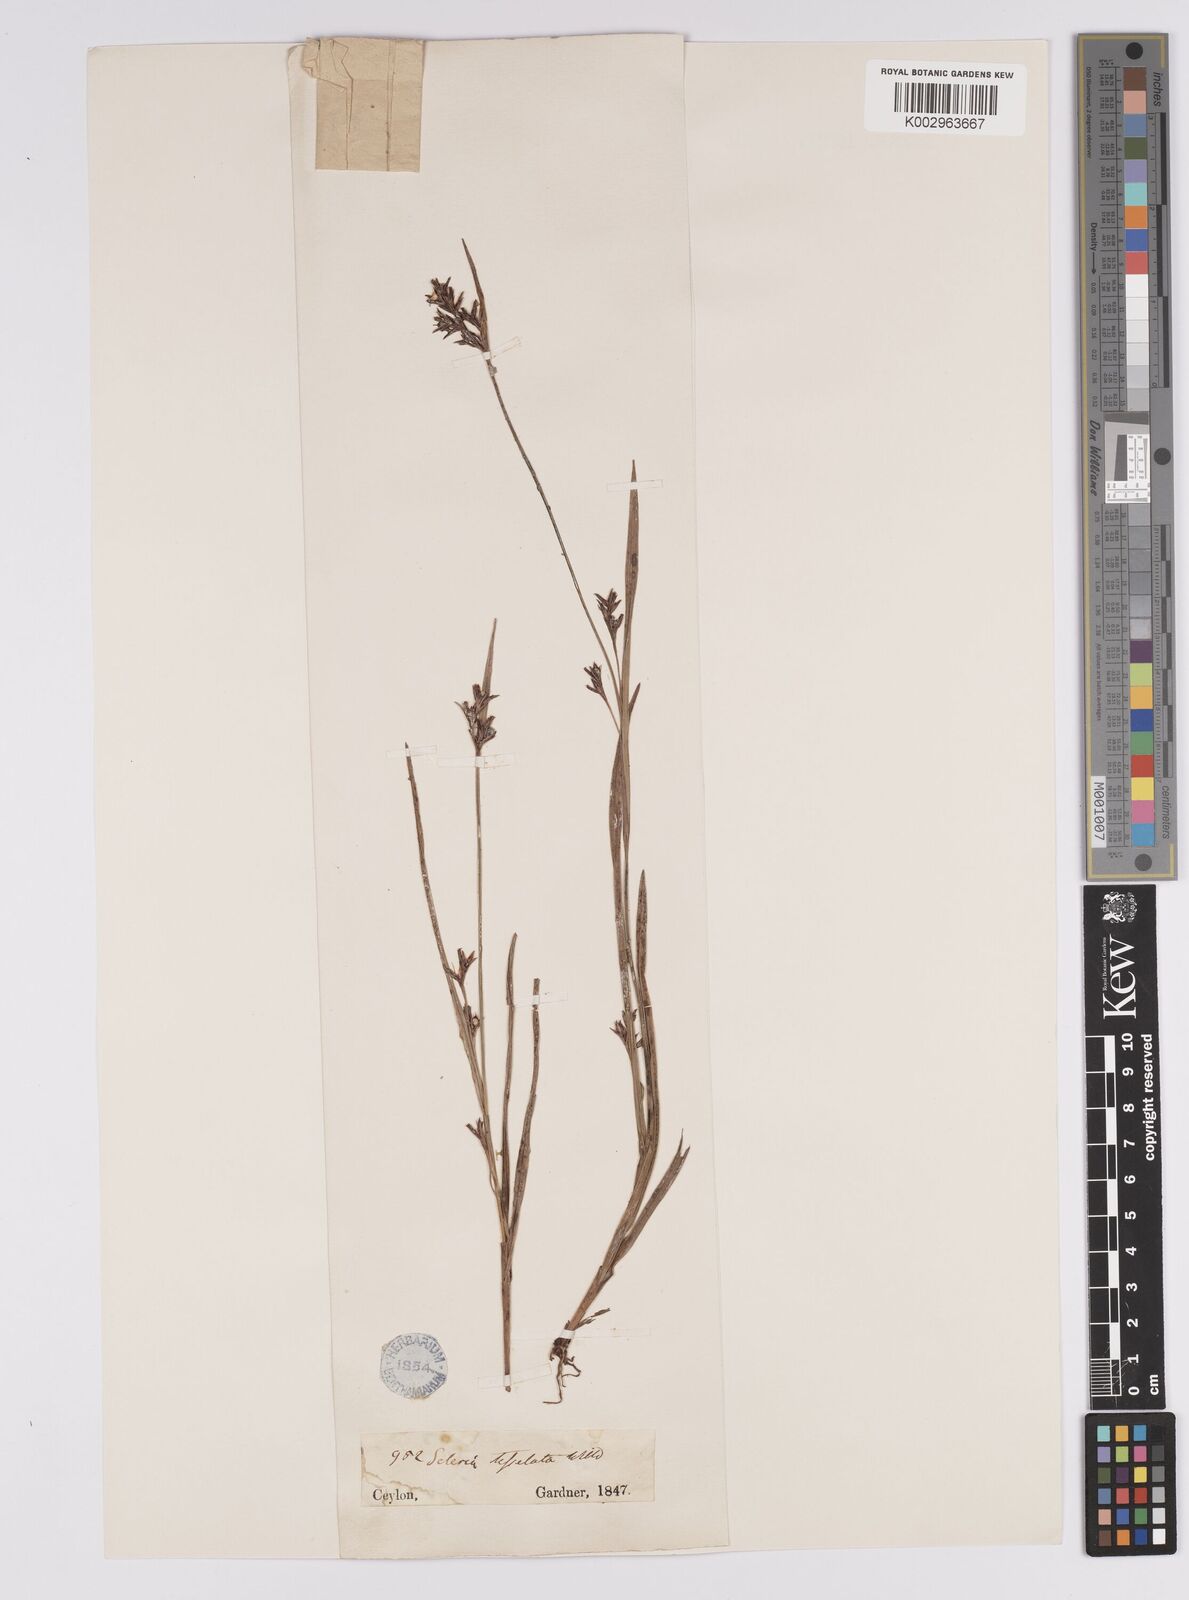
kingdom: Plantae
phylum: Tracheophyta
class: Liliopsida
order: Poales
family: Cyperaceae
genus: Scleria
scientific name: Scleria tessellata
